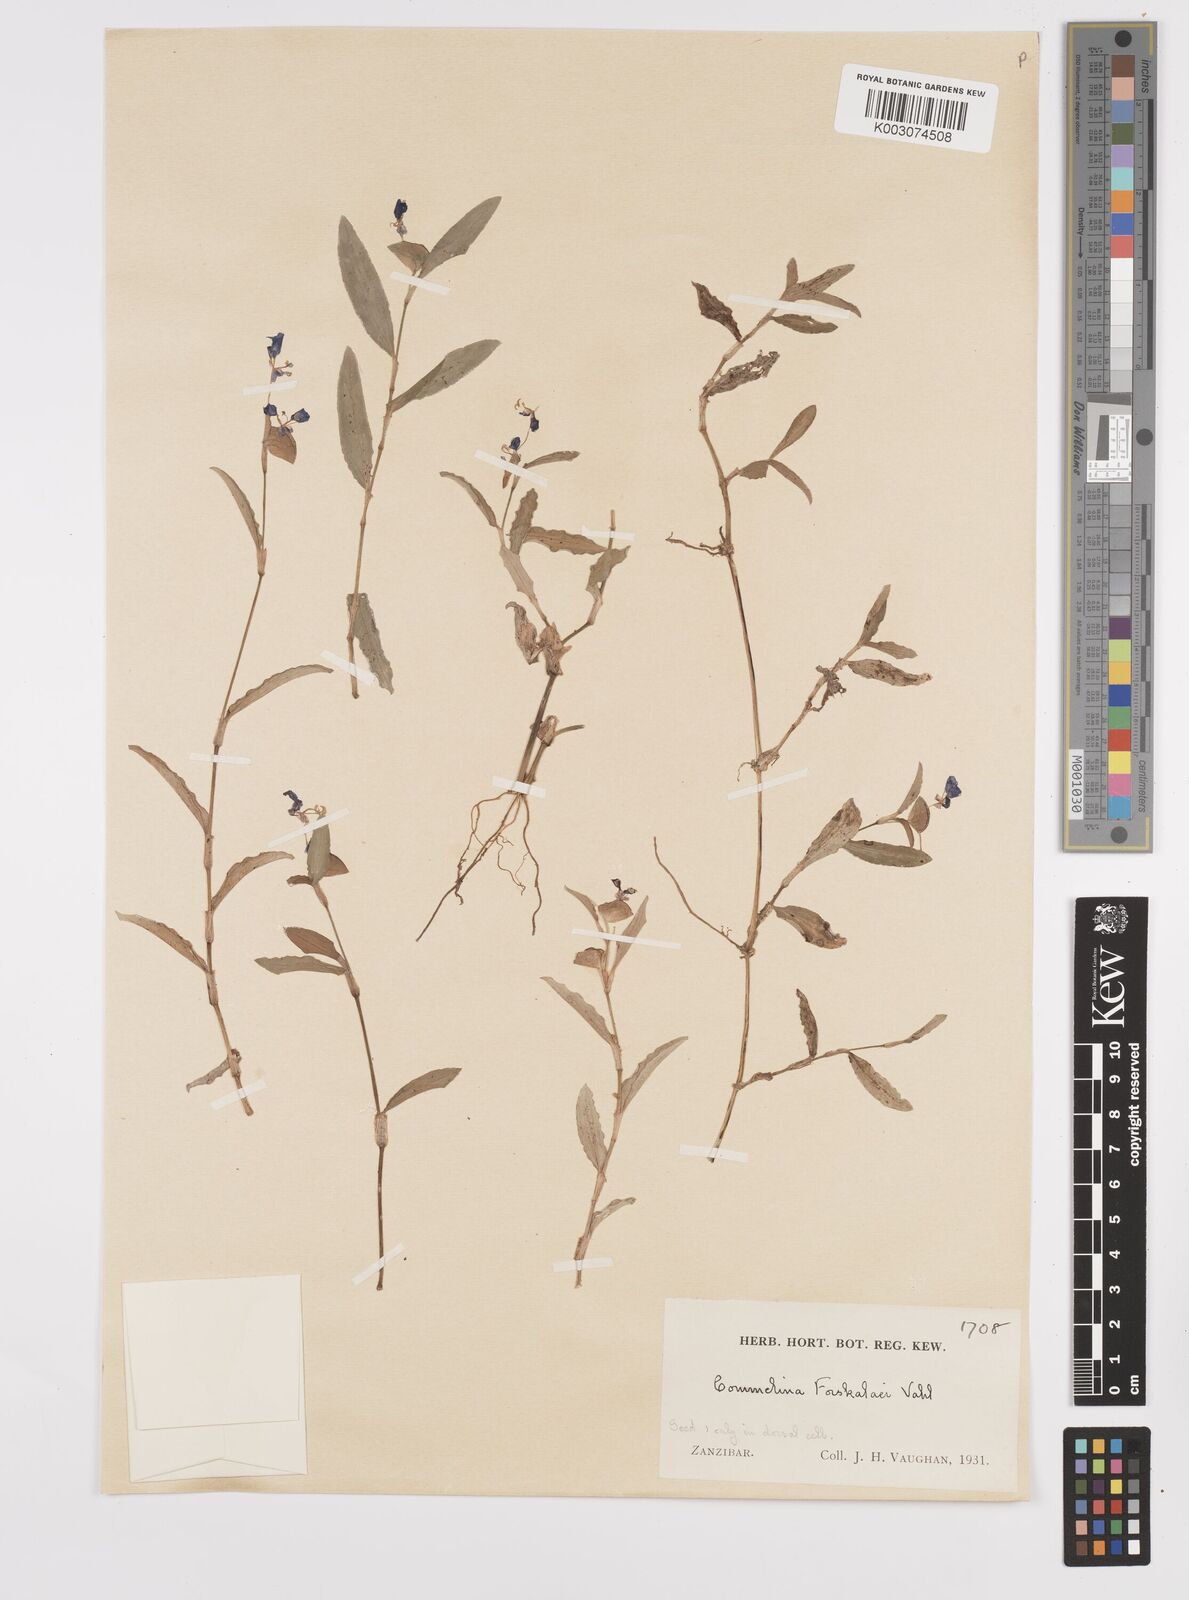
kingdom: Plantae
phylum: Tracheophyta
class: Liliopsida
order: Commelinales
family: Commelinaceae
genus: Commelina
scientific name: Commelina forskaolii
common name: Rat's ear
